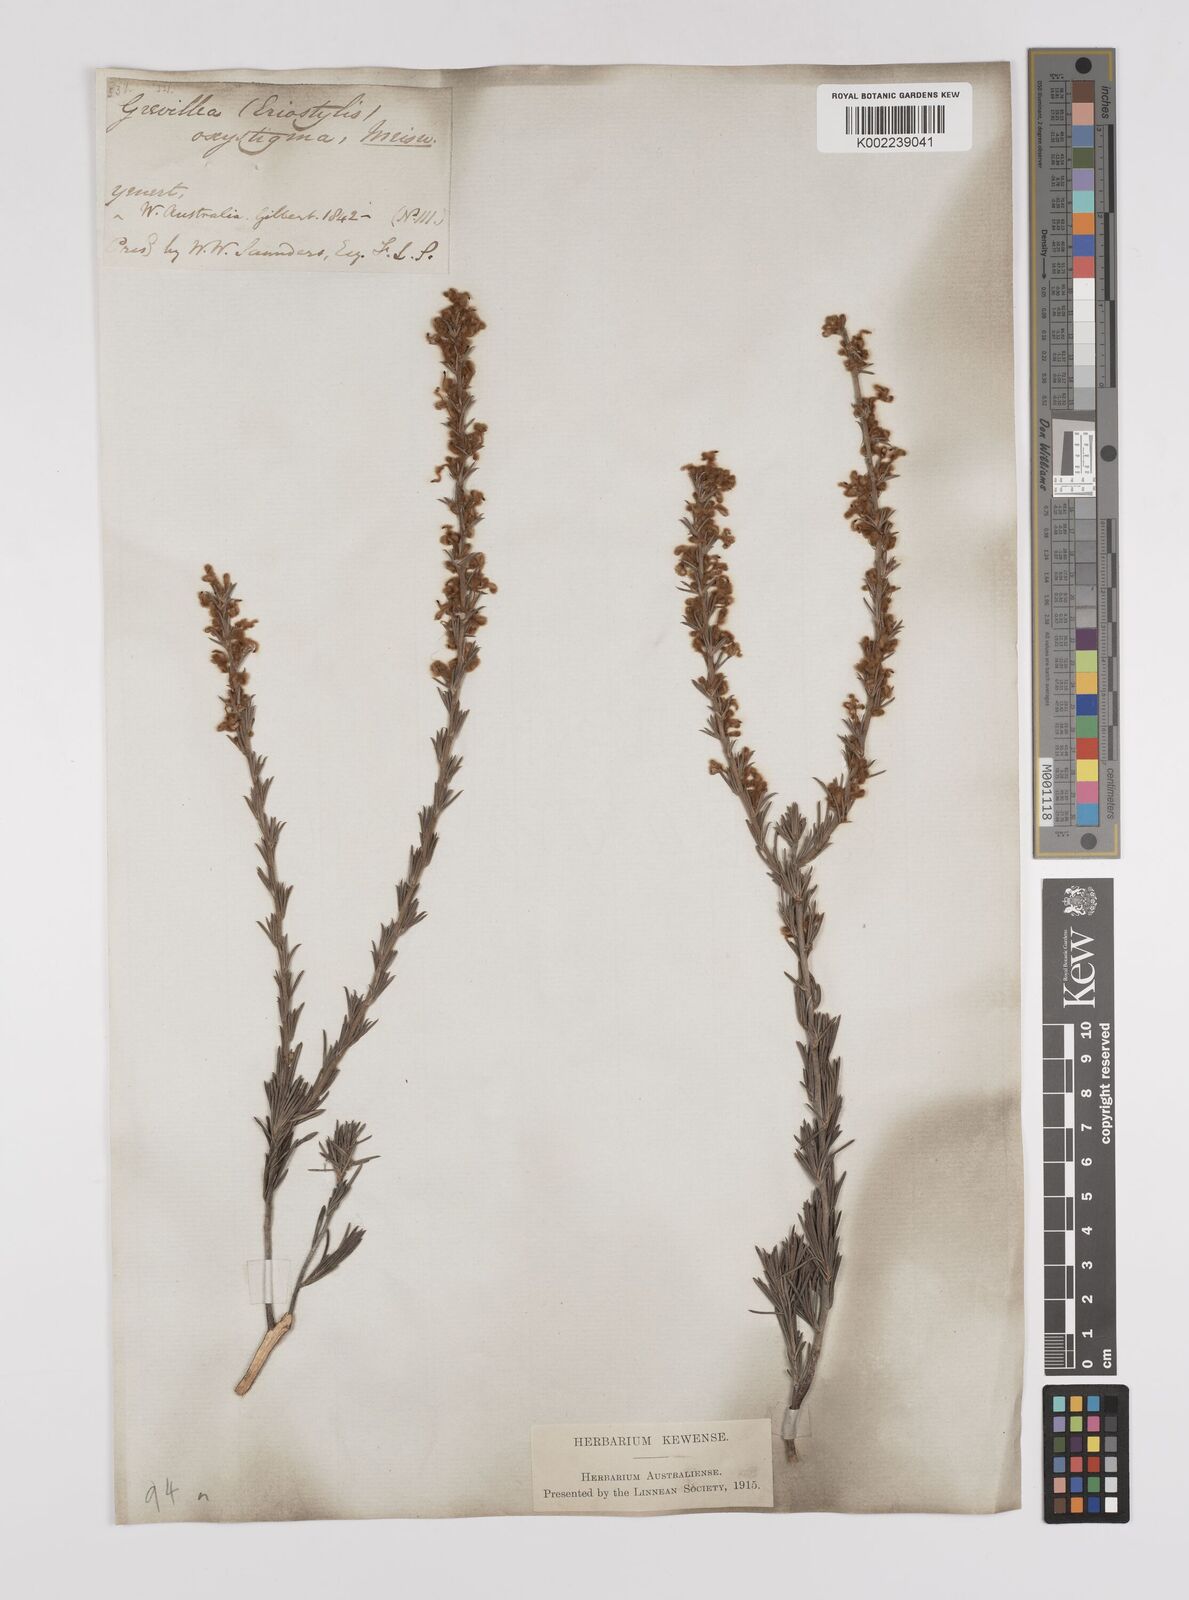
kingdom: Plantae
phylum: Tracheophyta
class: Magnoliopsida
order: Proteales
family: Proteaceae
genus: Grevillea
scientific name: Grevillea pilulifera
